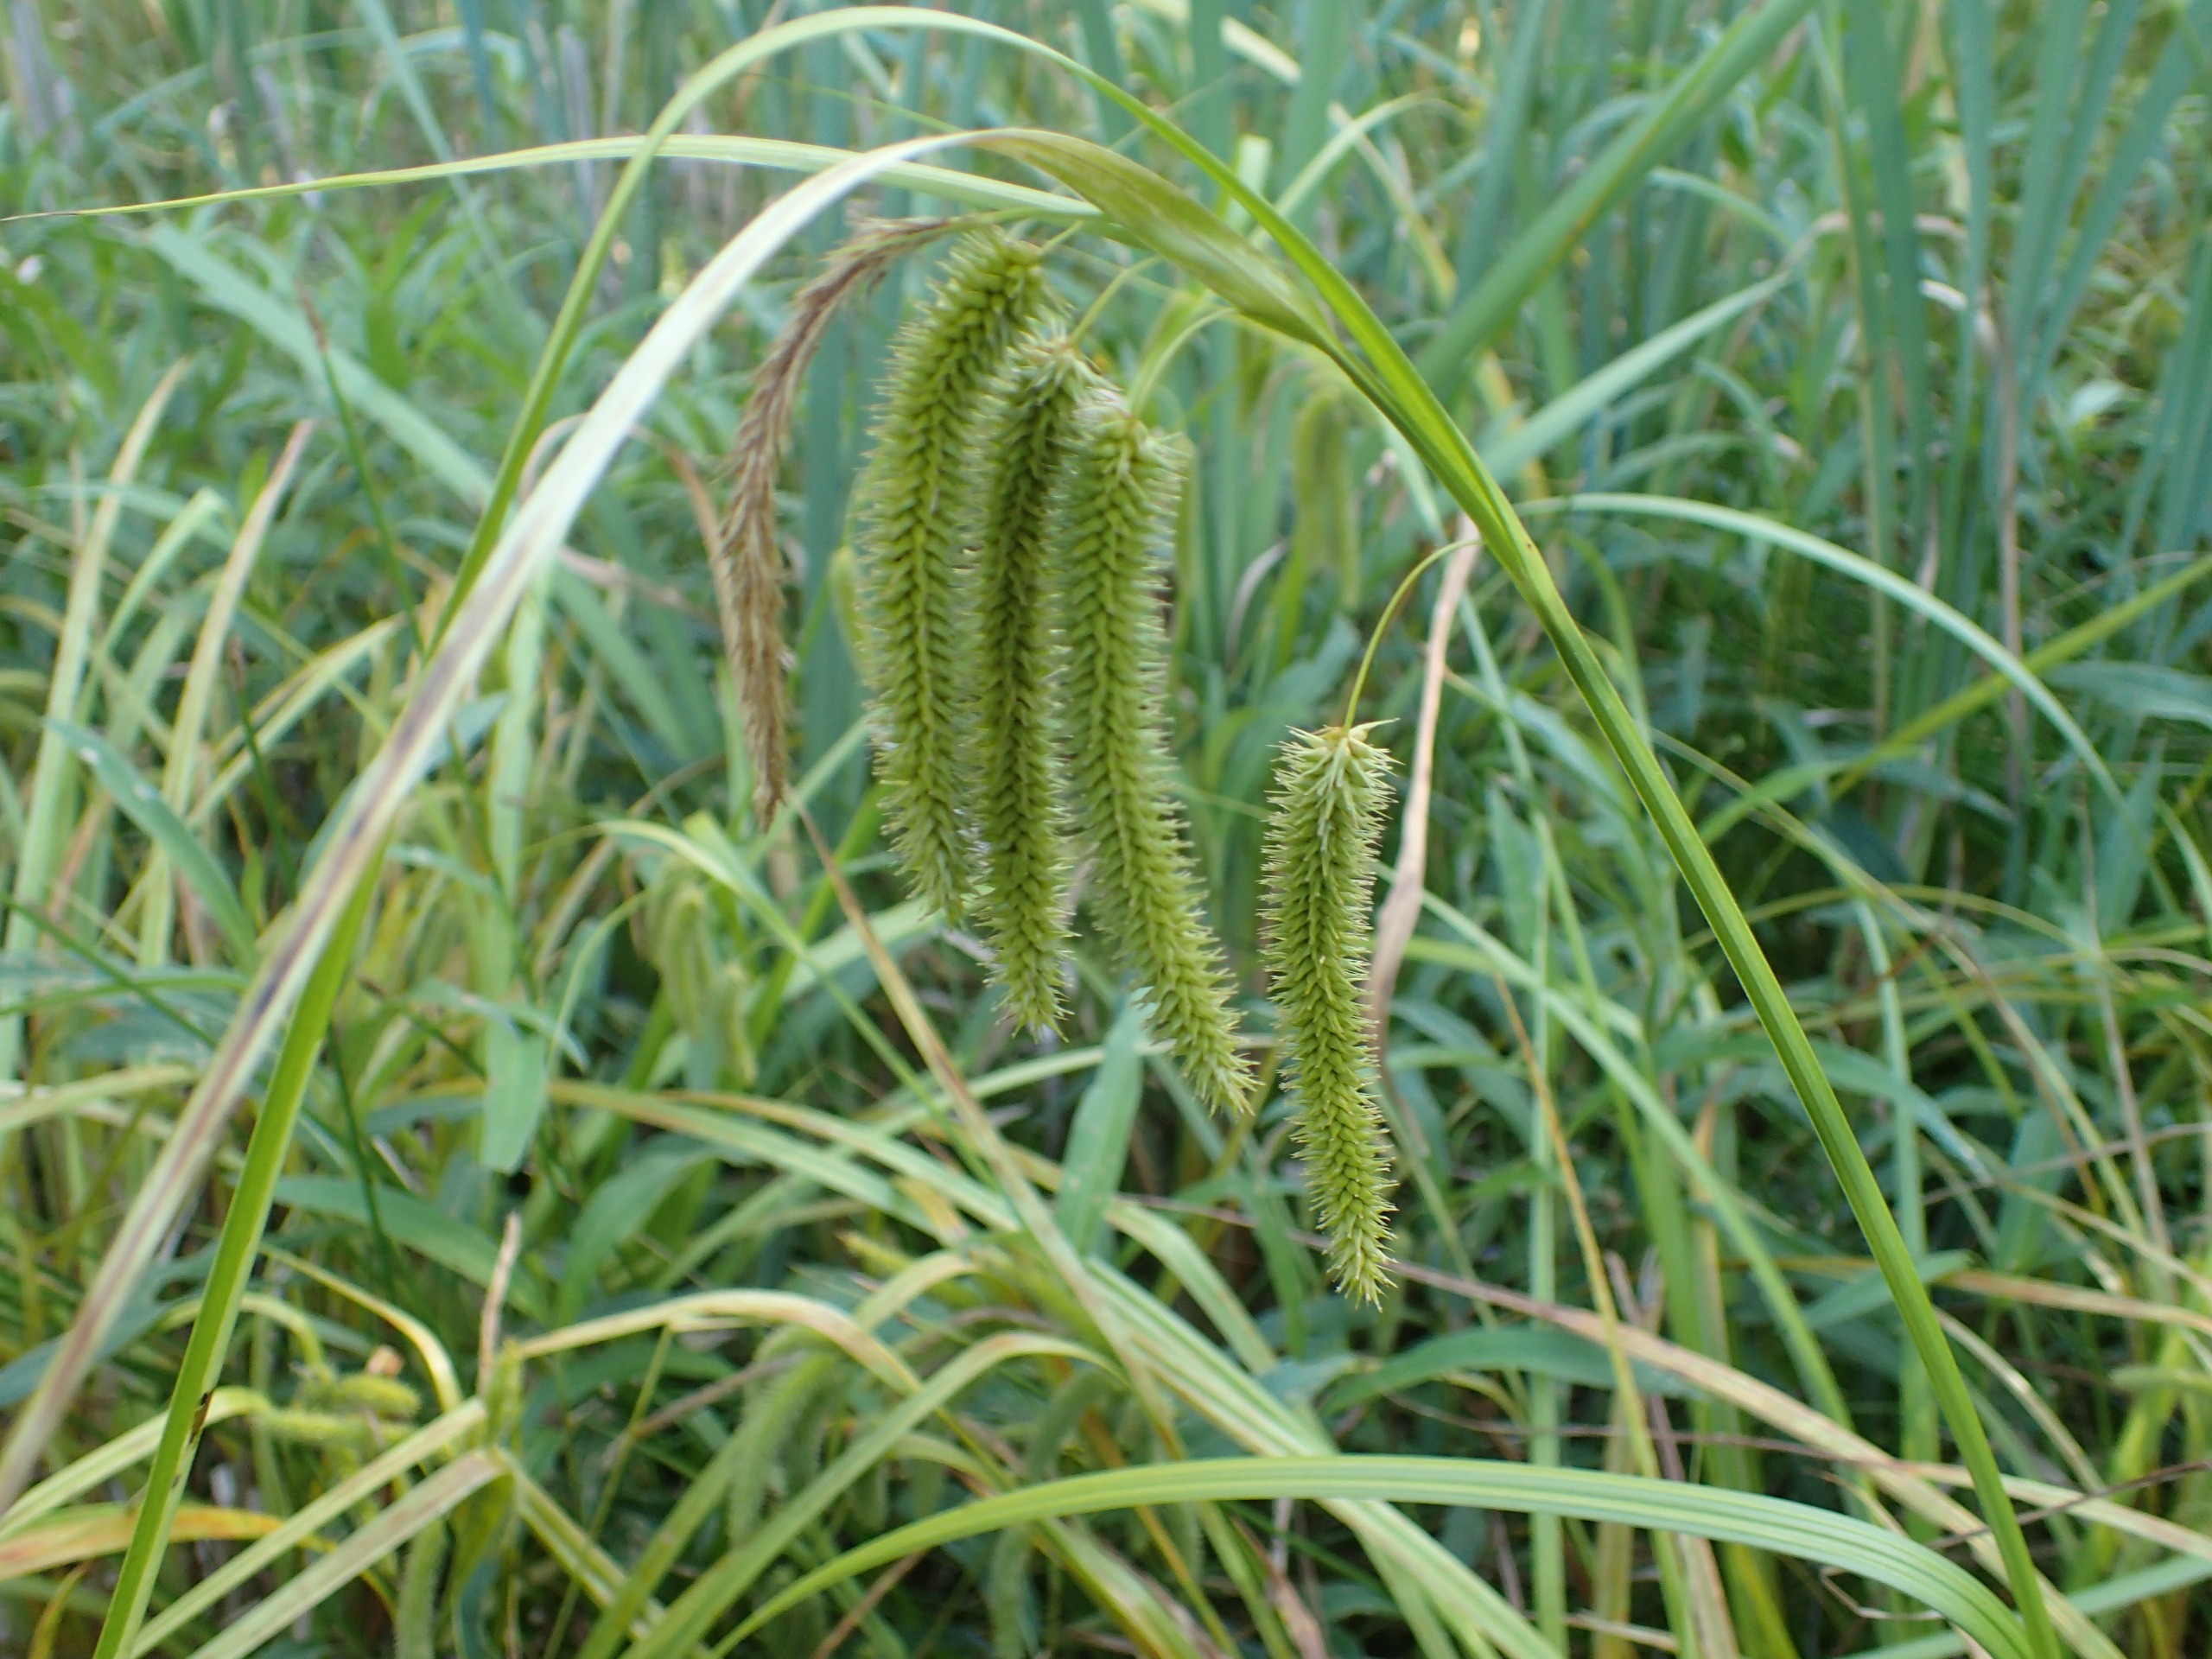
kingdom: Plantae
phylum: Tracheophyta
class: Liliopsida
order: Poales
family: Cyperaceae
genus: Carex
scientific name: Carex pseudocyperus
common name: Knippe-star
